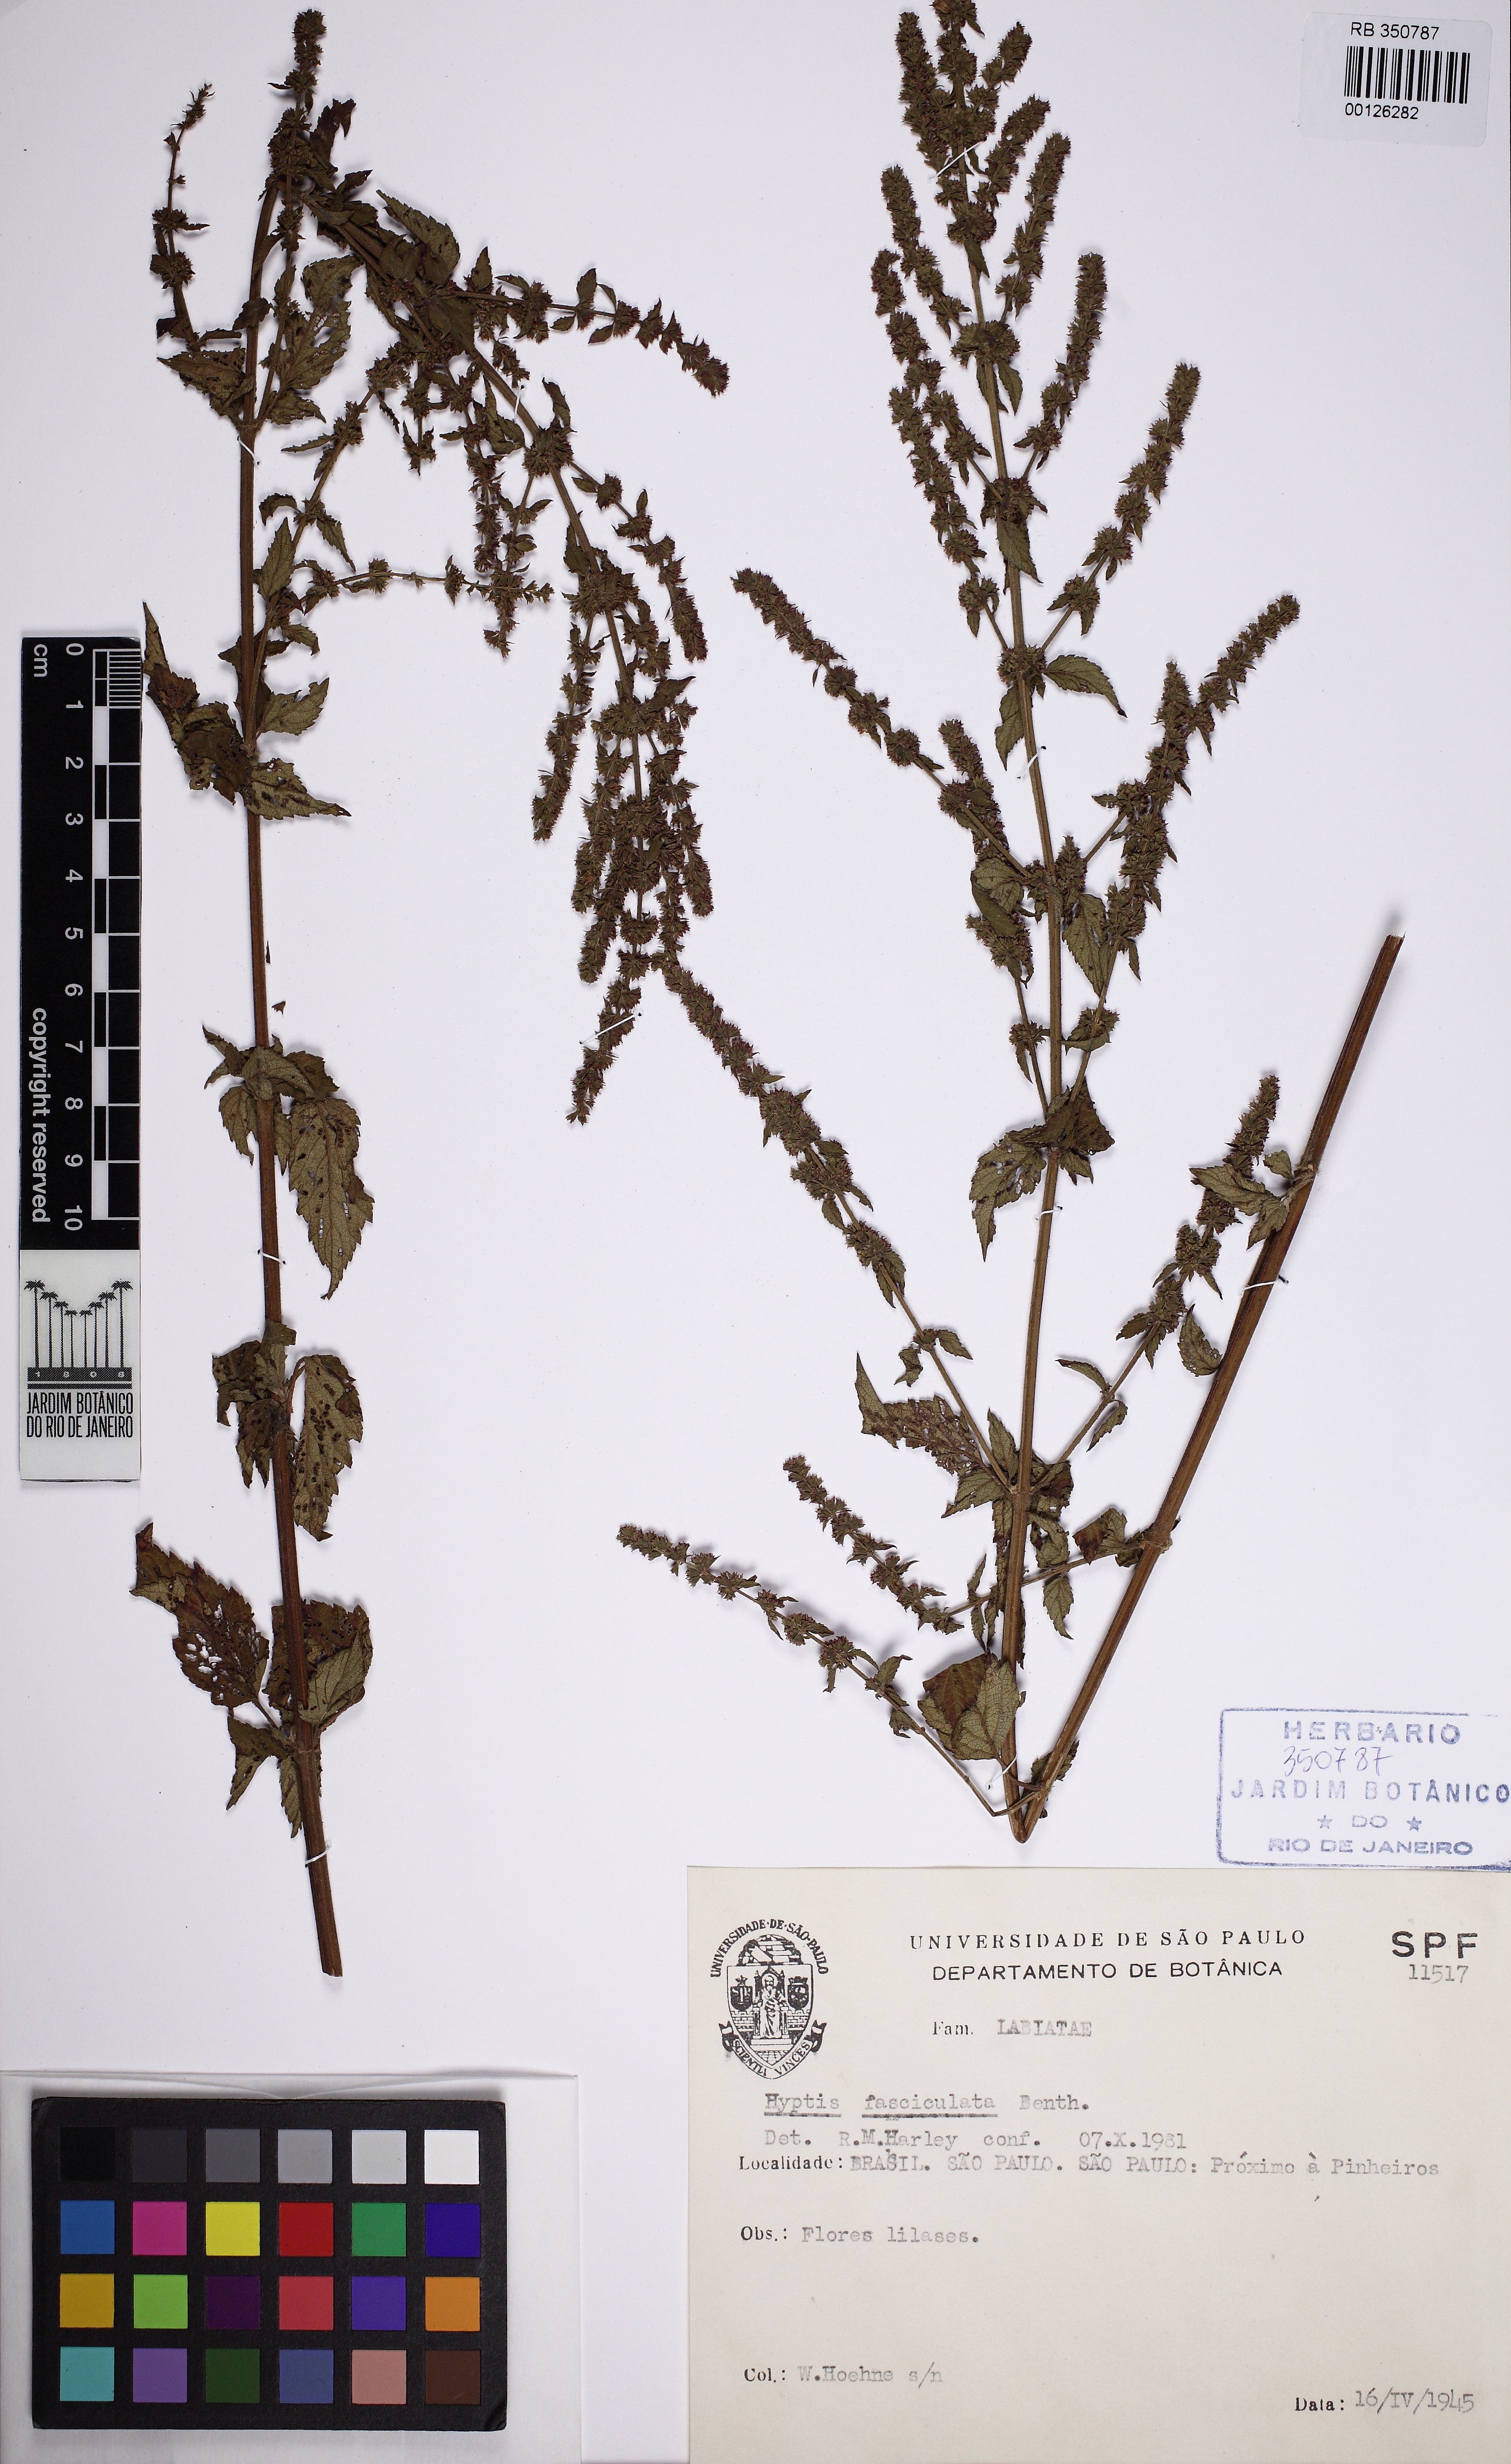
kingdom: Plantae
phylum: Tracheophyta
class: Magnoliopsida
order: Lamiales
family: Lamiaceae
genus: Condea
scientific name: Condea undulata
